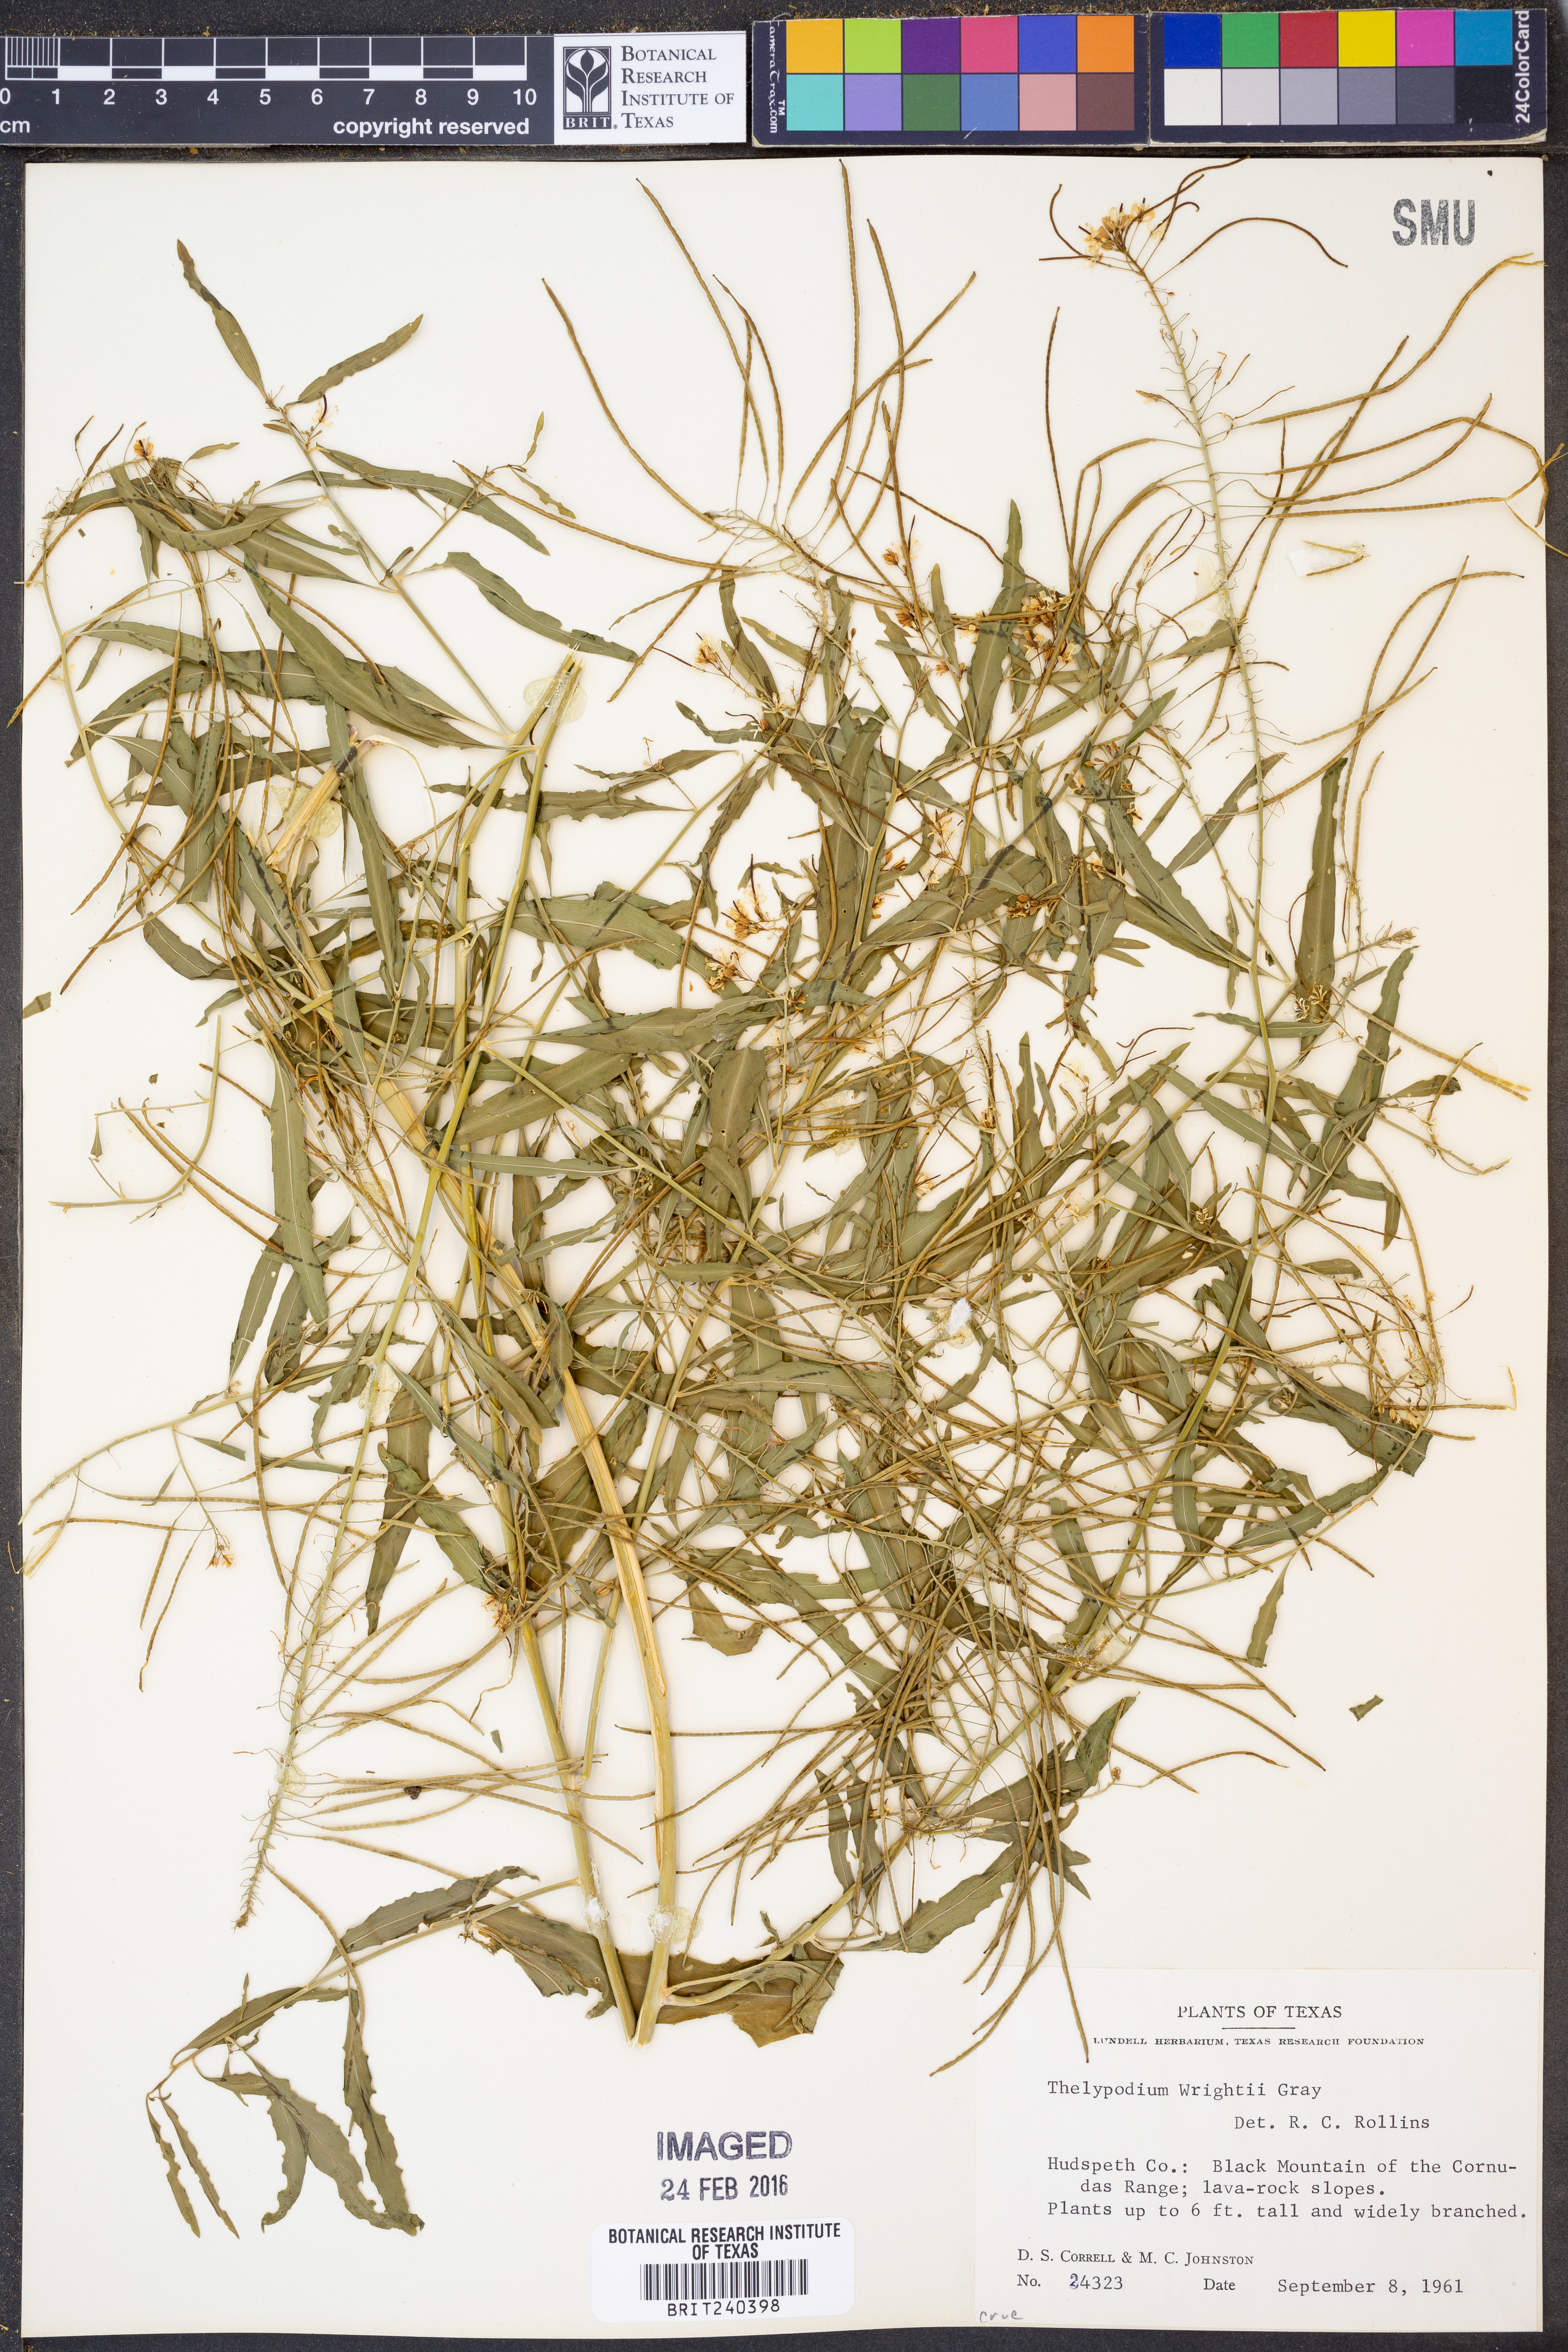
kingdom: Plantae
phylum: Tracheophyta
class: Magnoliopsida
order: Brassicales
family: Brassicaceae
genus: Thelypodium
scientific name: Thelypodium wrightii
